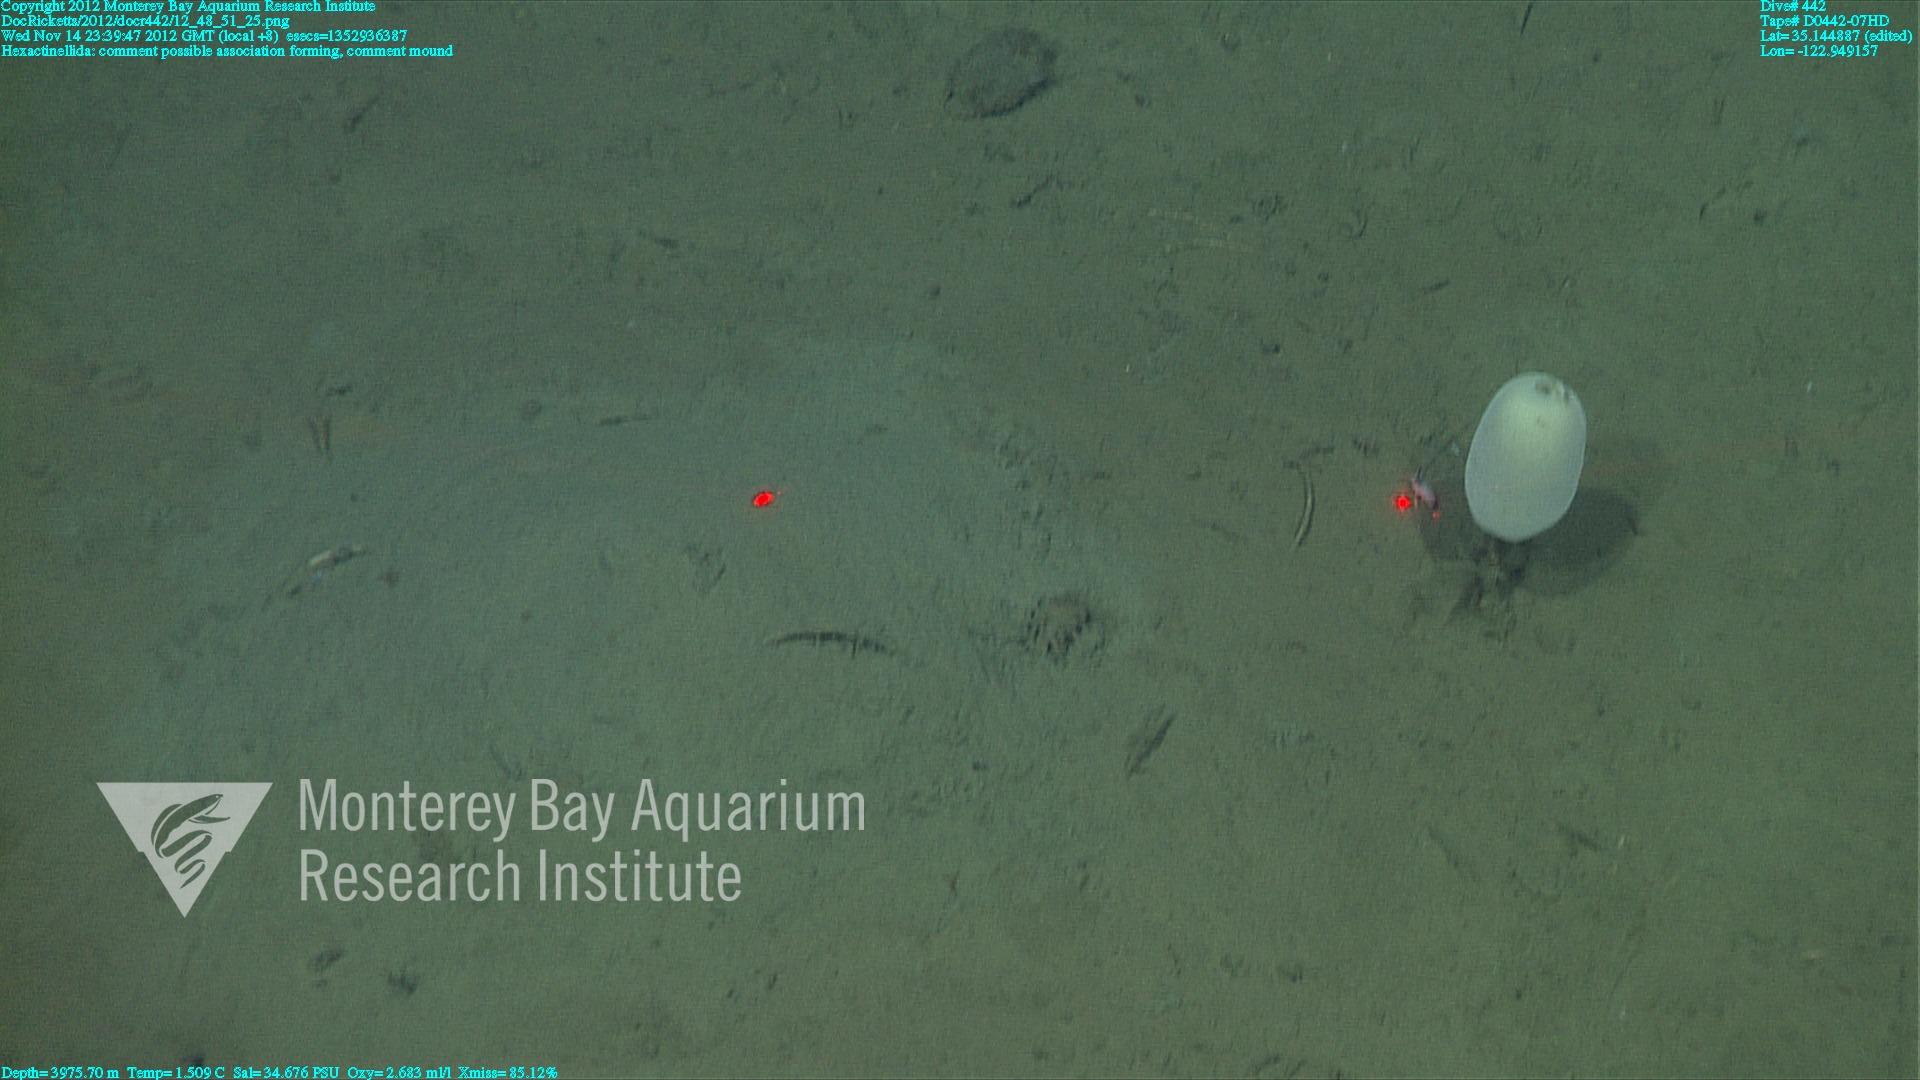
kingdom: Animalia
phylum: Porifera
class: Hexactinellida
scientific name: Hexactinellida
